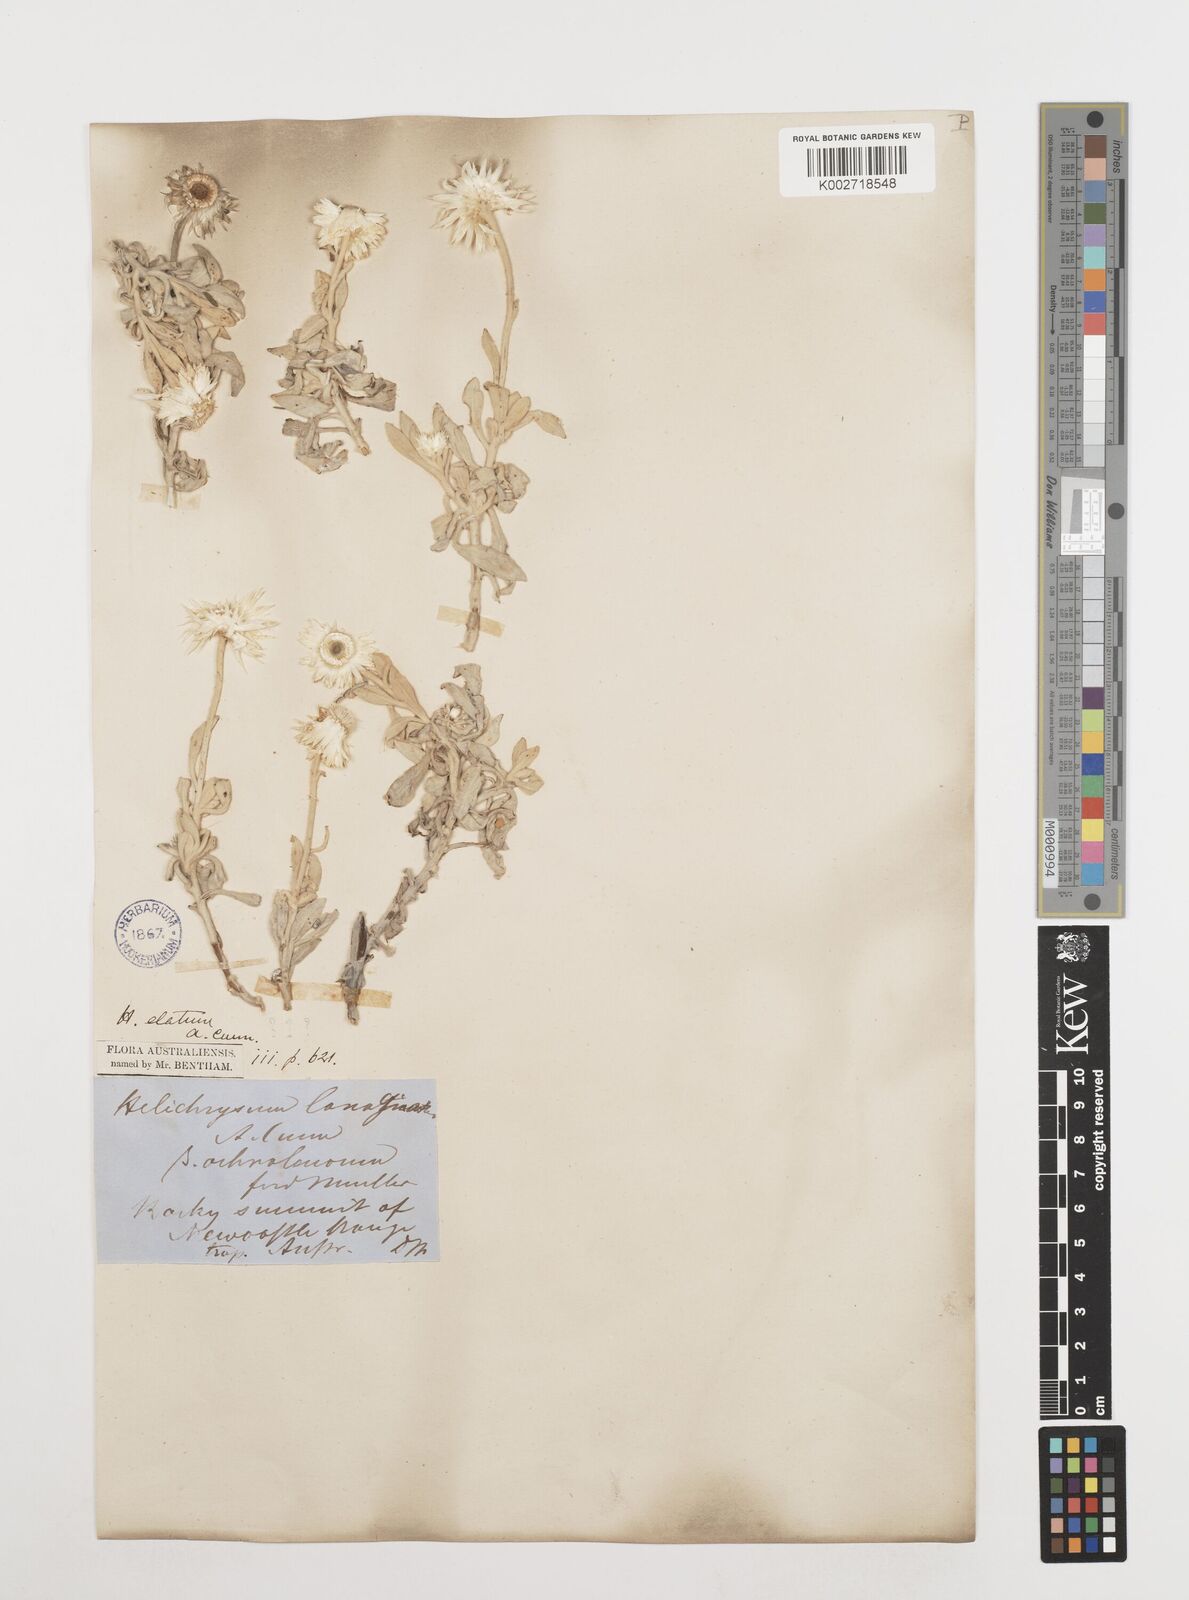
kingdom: Plantae
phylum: Tracheophyta
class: Magnoliopsida
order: Asterales
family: Asteraceae
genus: Leucozoma
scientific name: Leucozoma elatum
